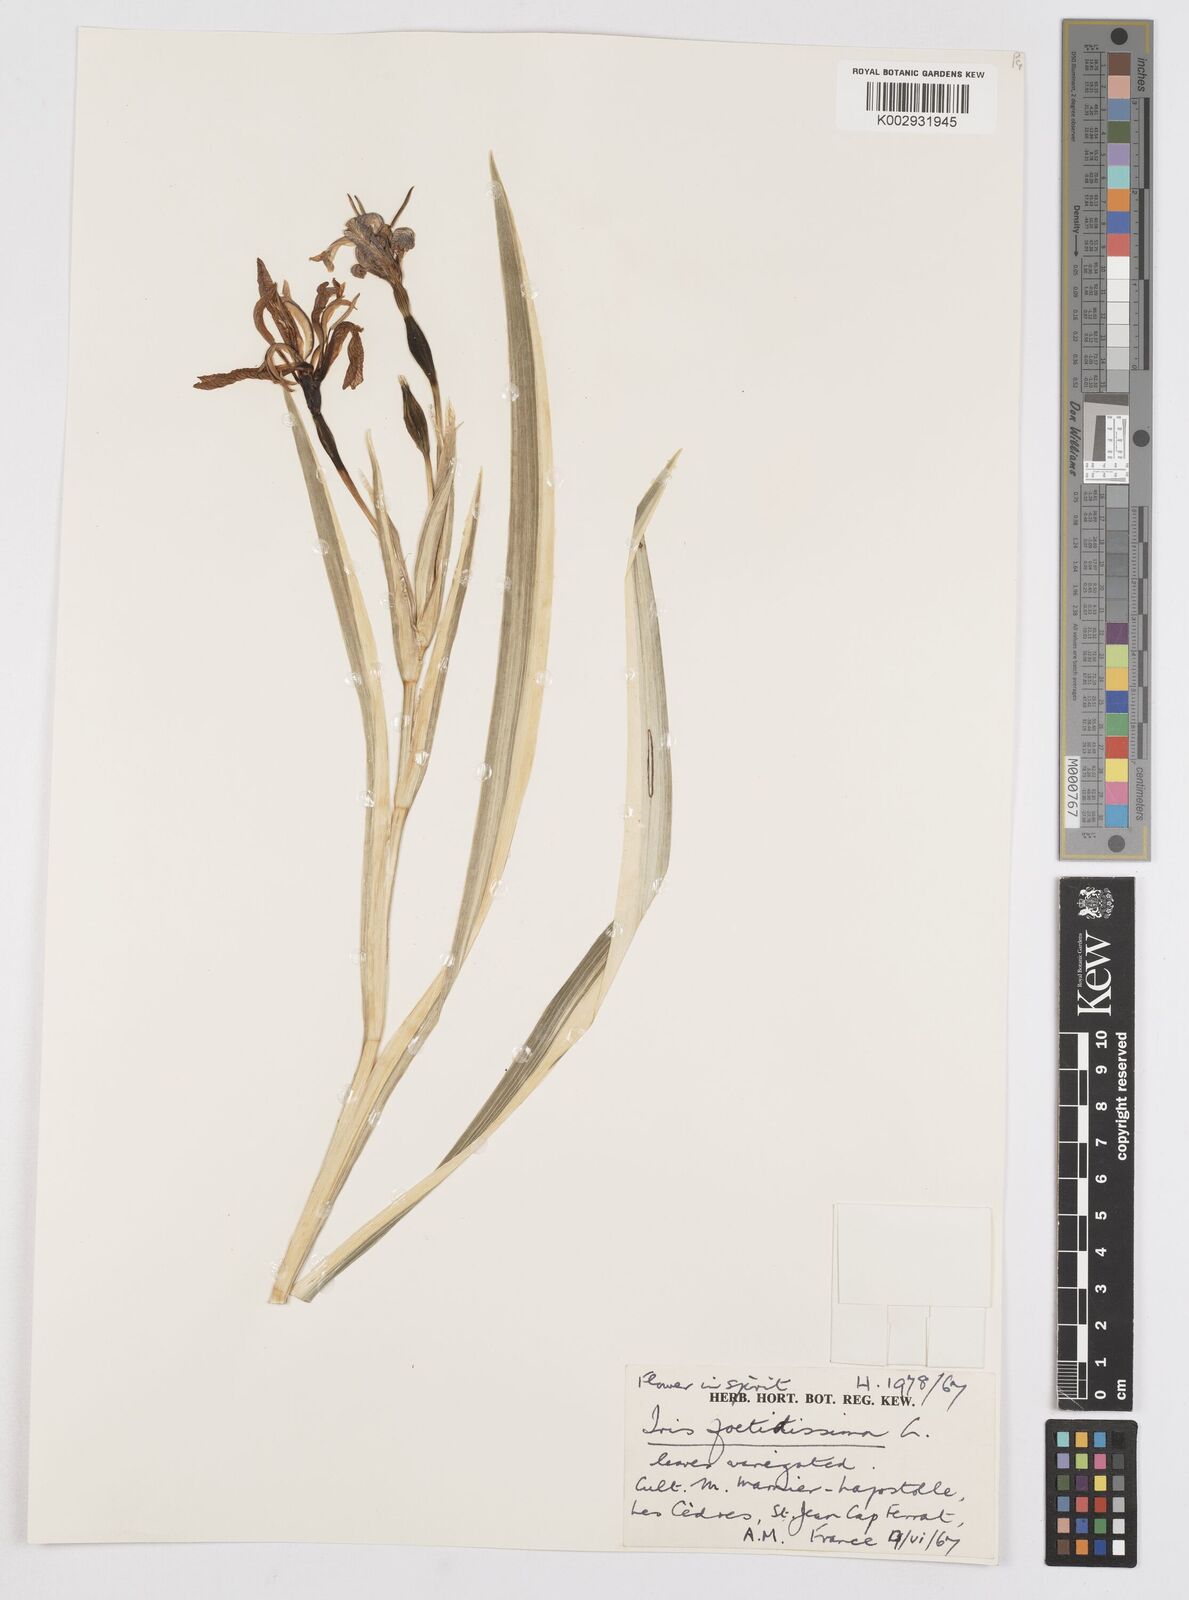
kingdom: Plantae
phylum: Tracheophyta
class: Liliopsida
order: Asparagales
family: Iridaceae
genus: Iris
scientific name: Iris foetidissima
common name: Stinking iris
